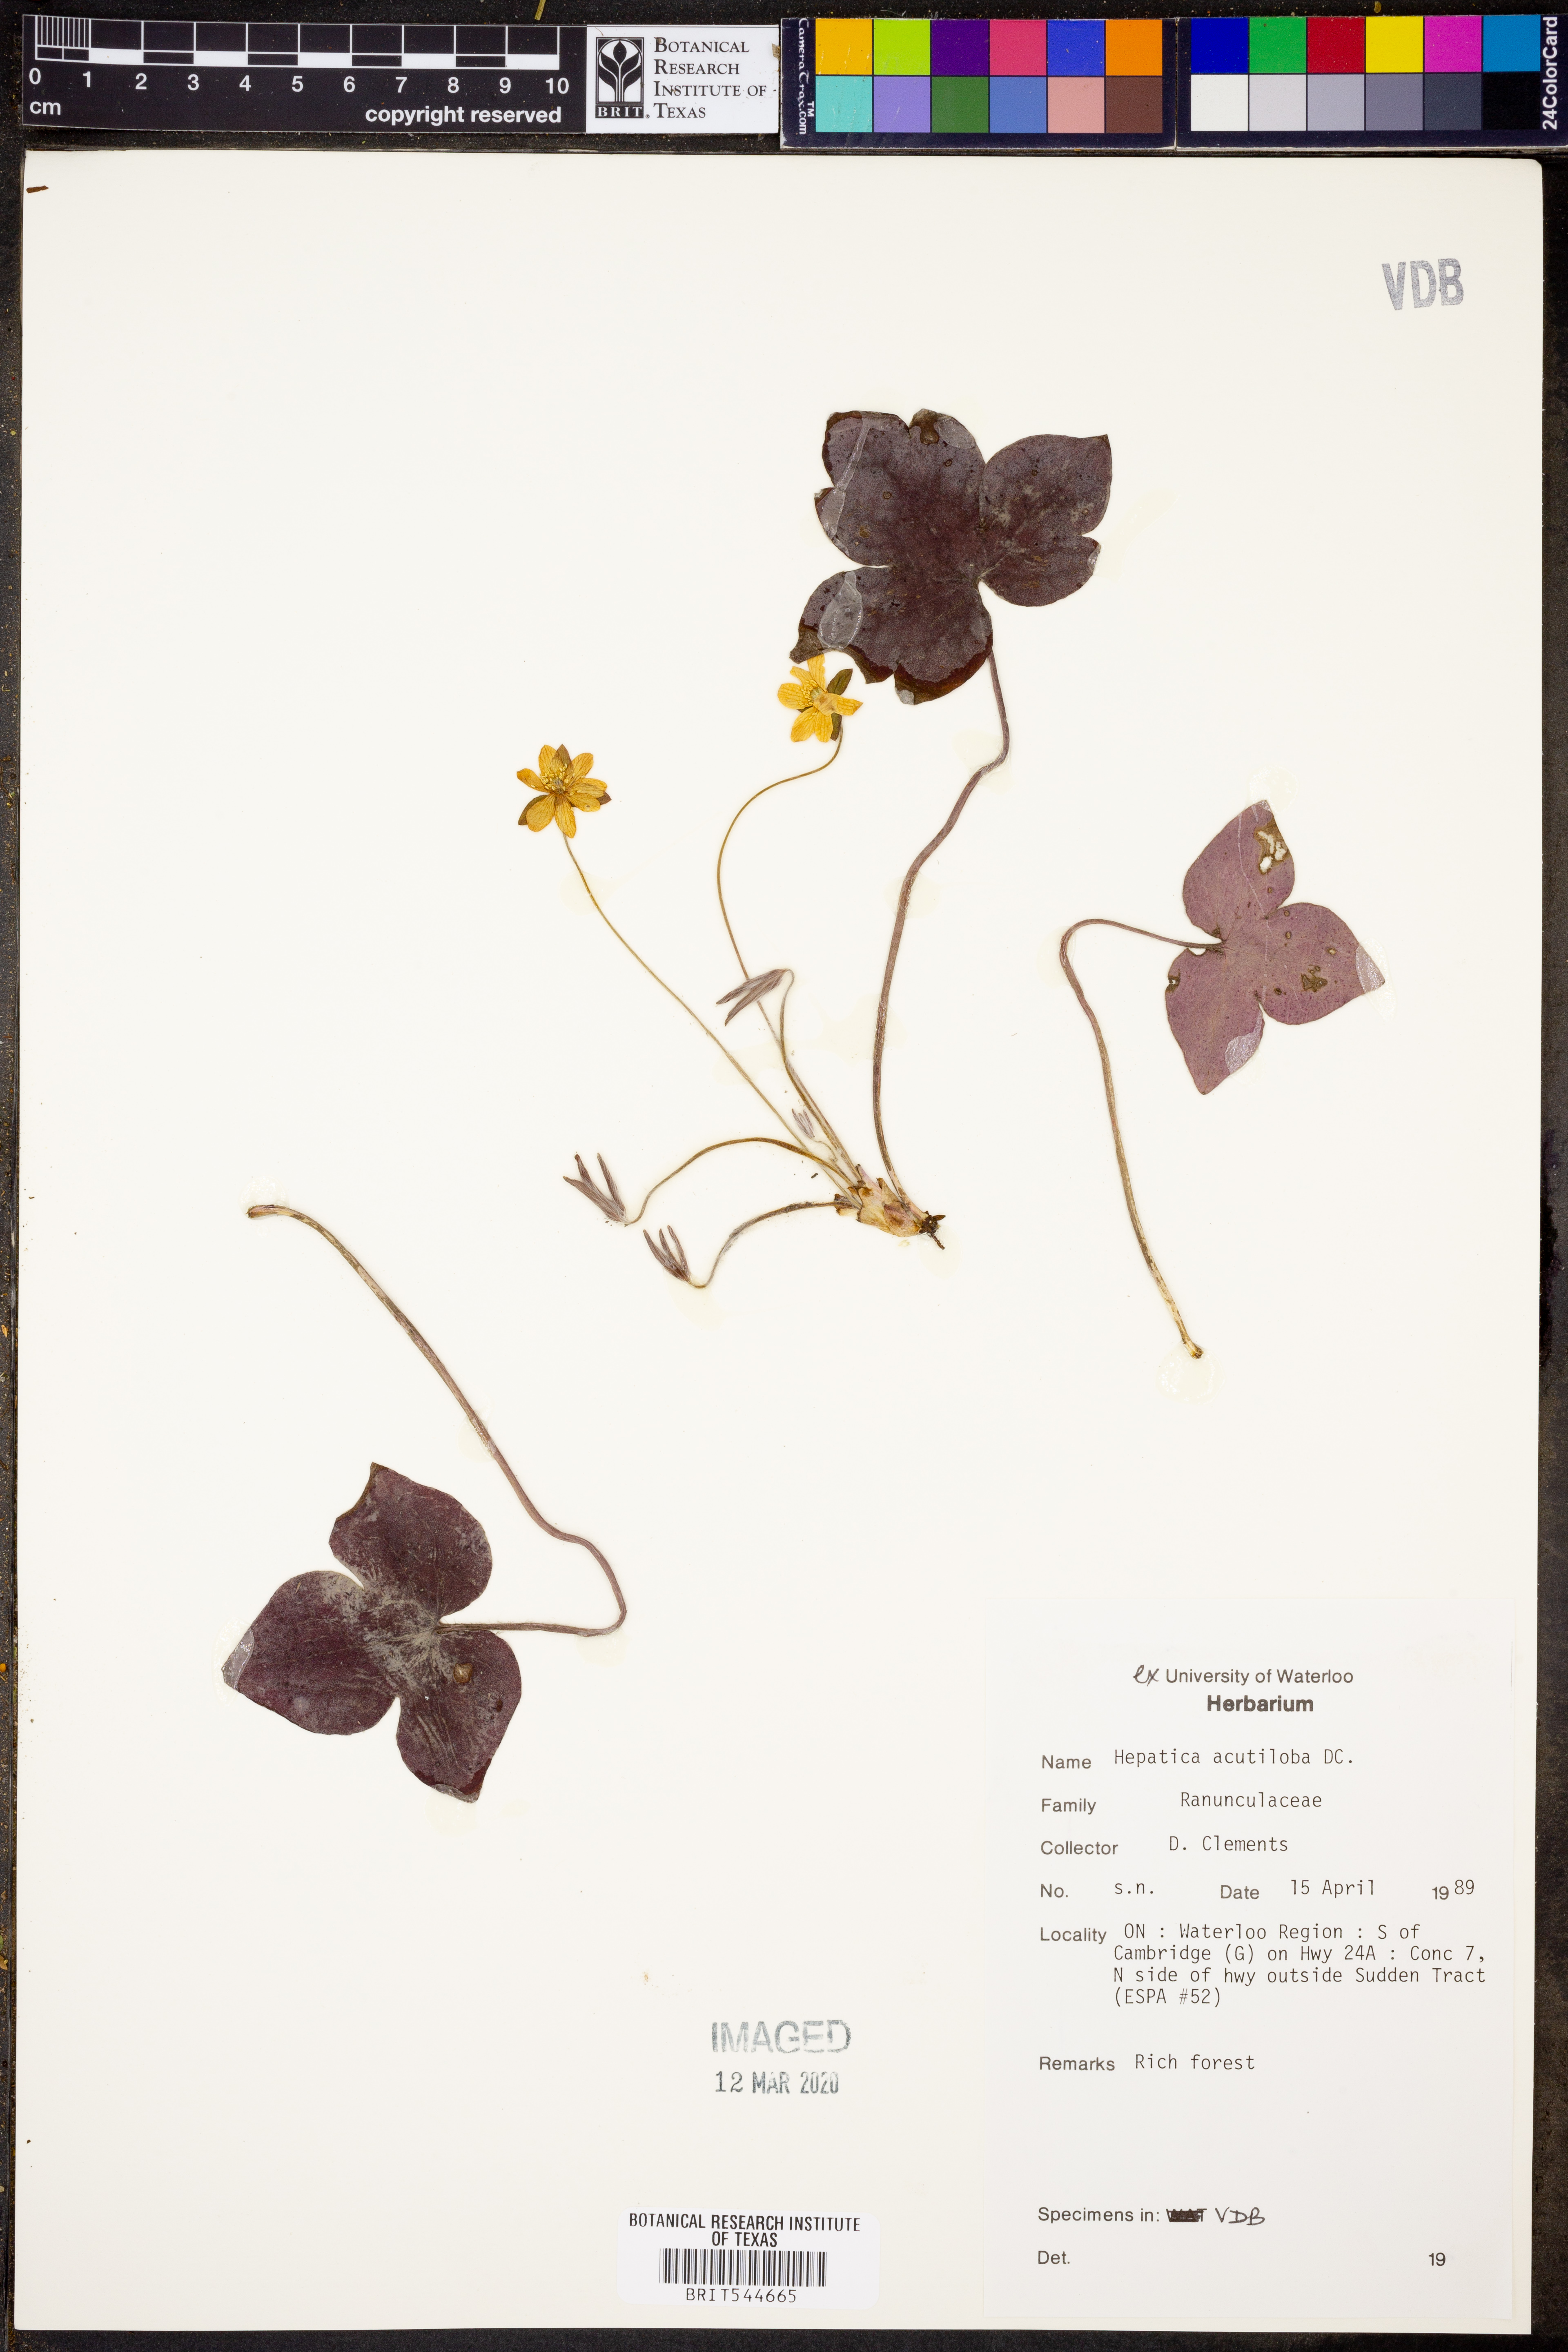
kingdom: Plantae
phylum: Tracheophyta
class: Magnoliopsida
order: Ranunculales
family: Ranunculaceae
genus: Hepatica
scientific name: Hepatica acutiloba
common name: Sharp-lobed hepatica
